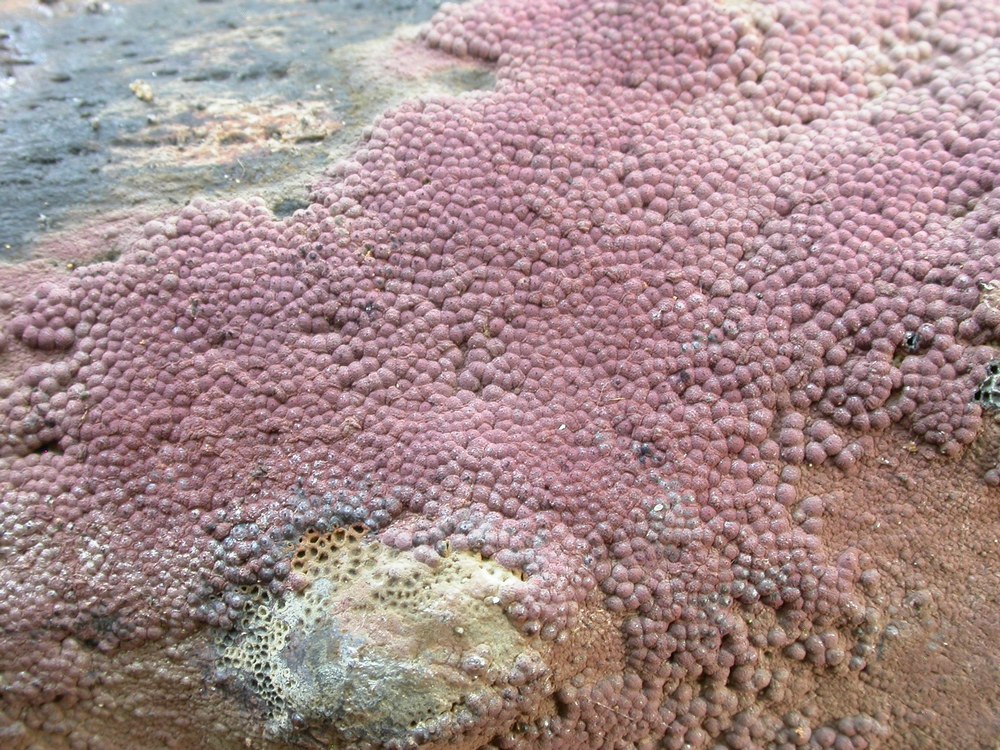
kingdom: Fungi
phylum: Ascomycota
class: Sordariomycetes
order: Xylariales
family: Hypoxylaceae
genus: Hypoxylon
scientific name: Hypoxylon macrocarpum
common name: skorpe-kulbær
